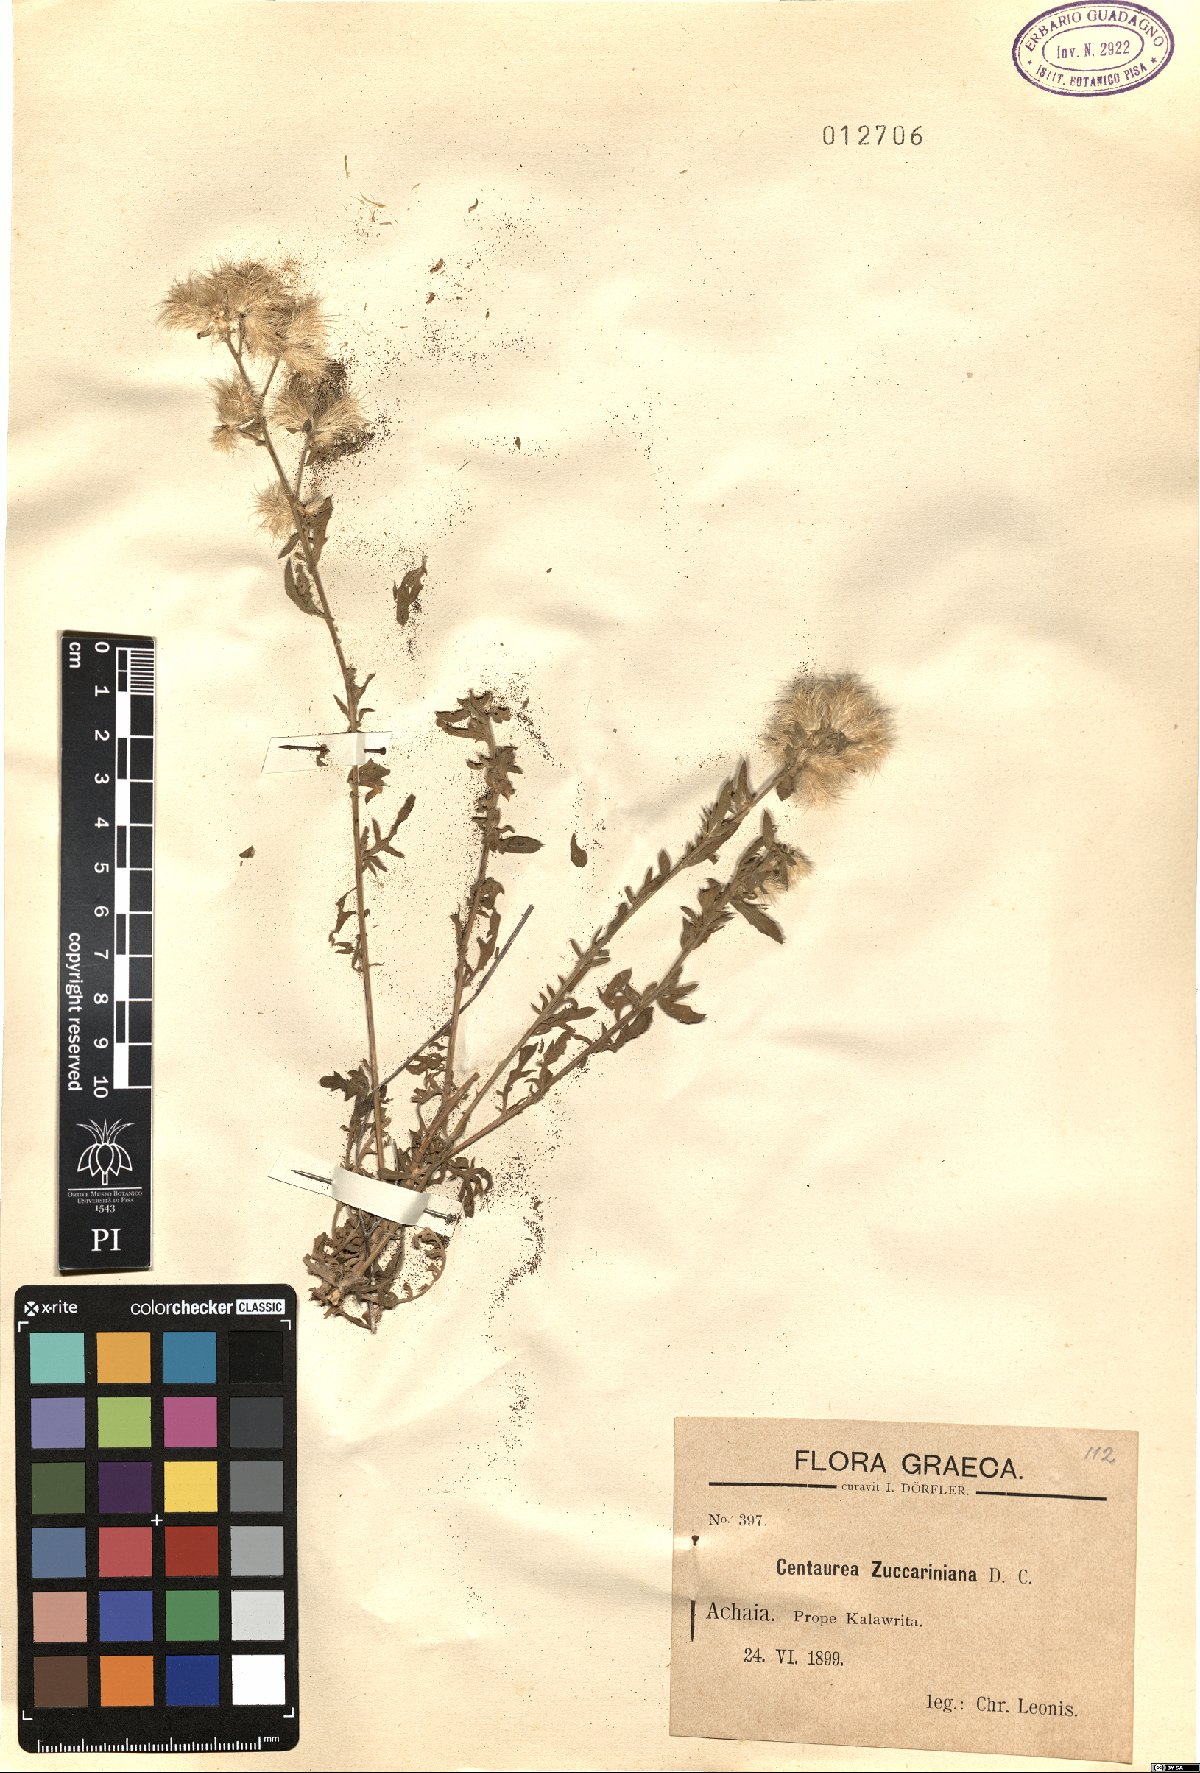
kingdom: Plantae
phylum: Tracheophyta
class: Magnoliopsida
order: Asterales
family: Asteraceae
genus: Centaurea
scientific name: Centaurea zuccariniana
